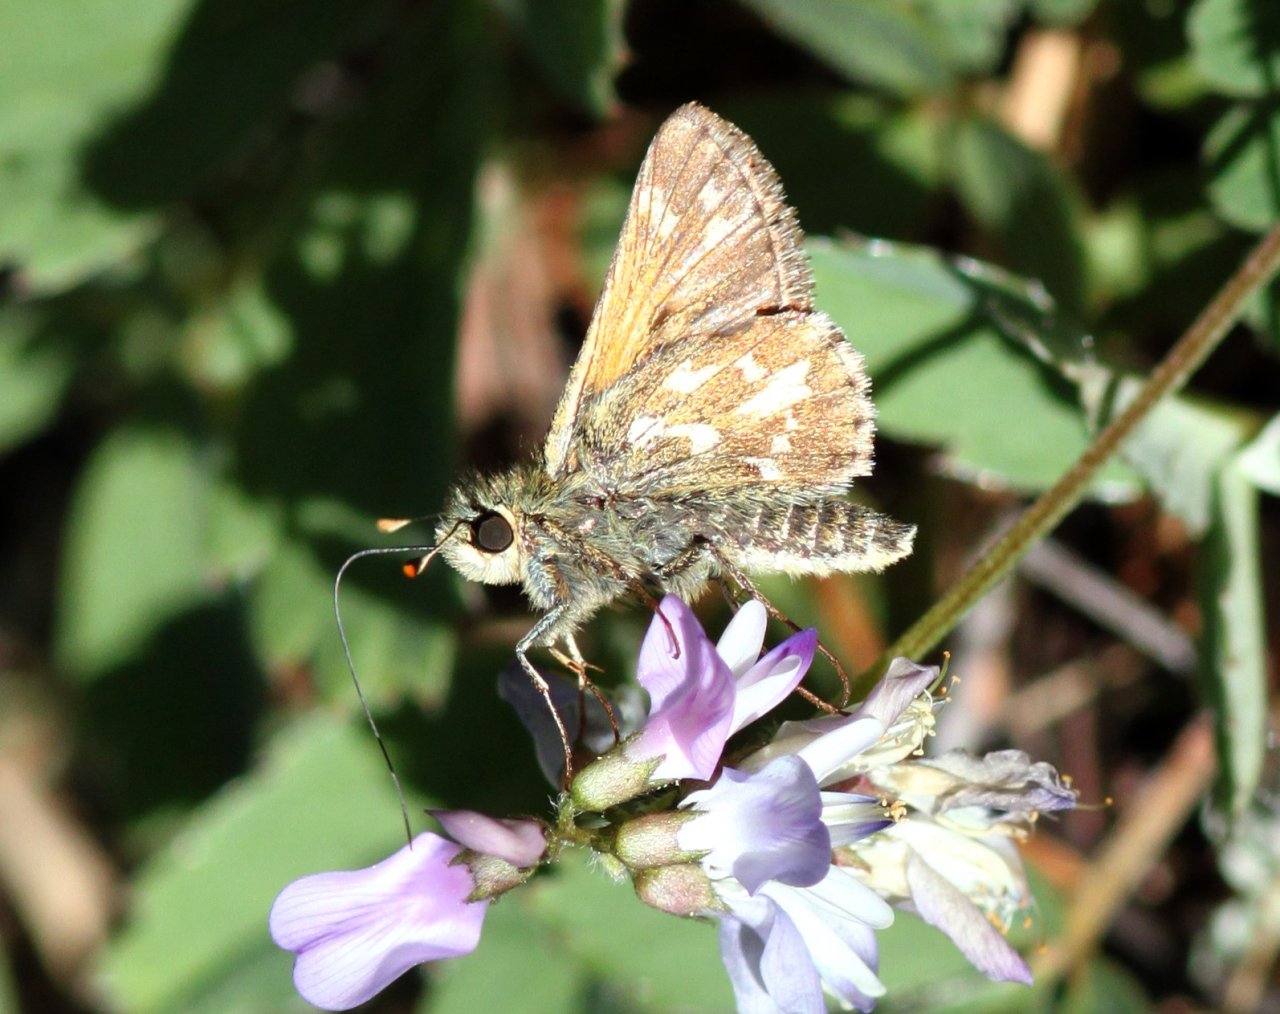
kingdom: Animalia
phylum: Arthropoda
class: Insecta
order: Lepidoptera
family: Hesperiidae
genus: Polites
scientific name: Polites sabuleti
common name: Draco Skipper
